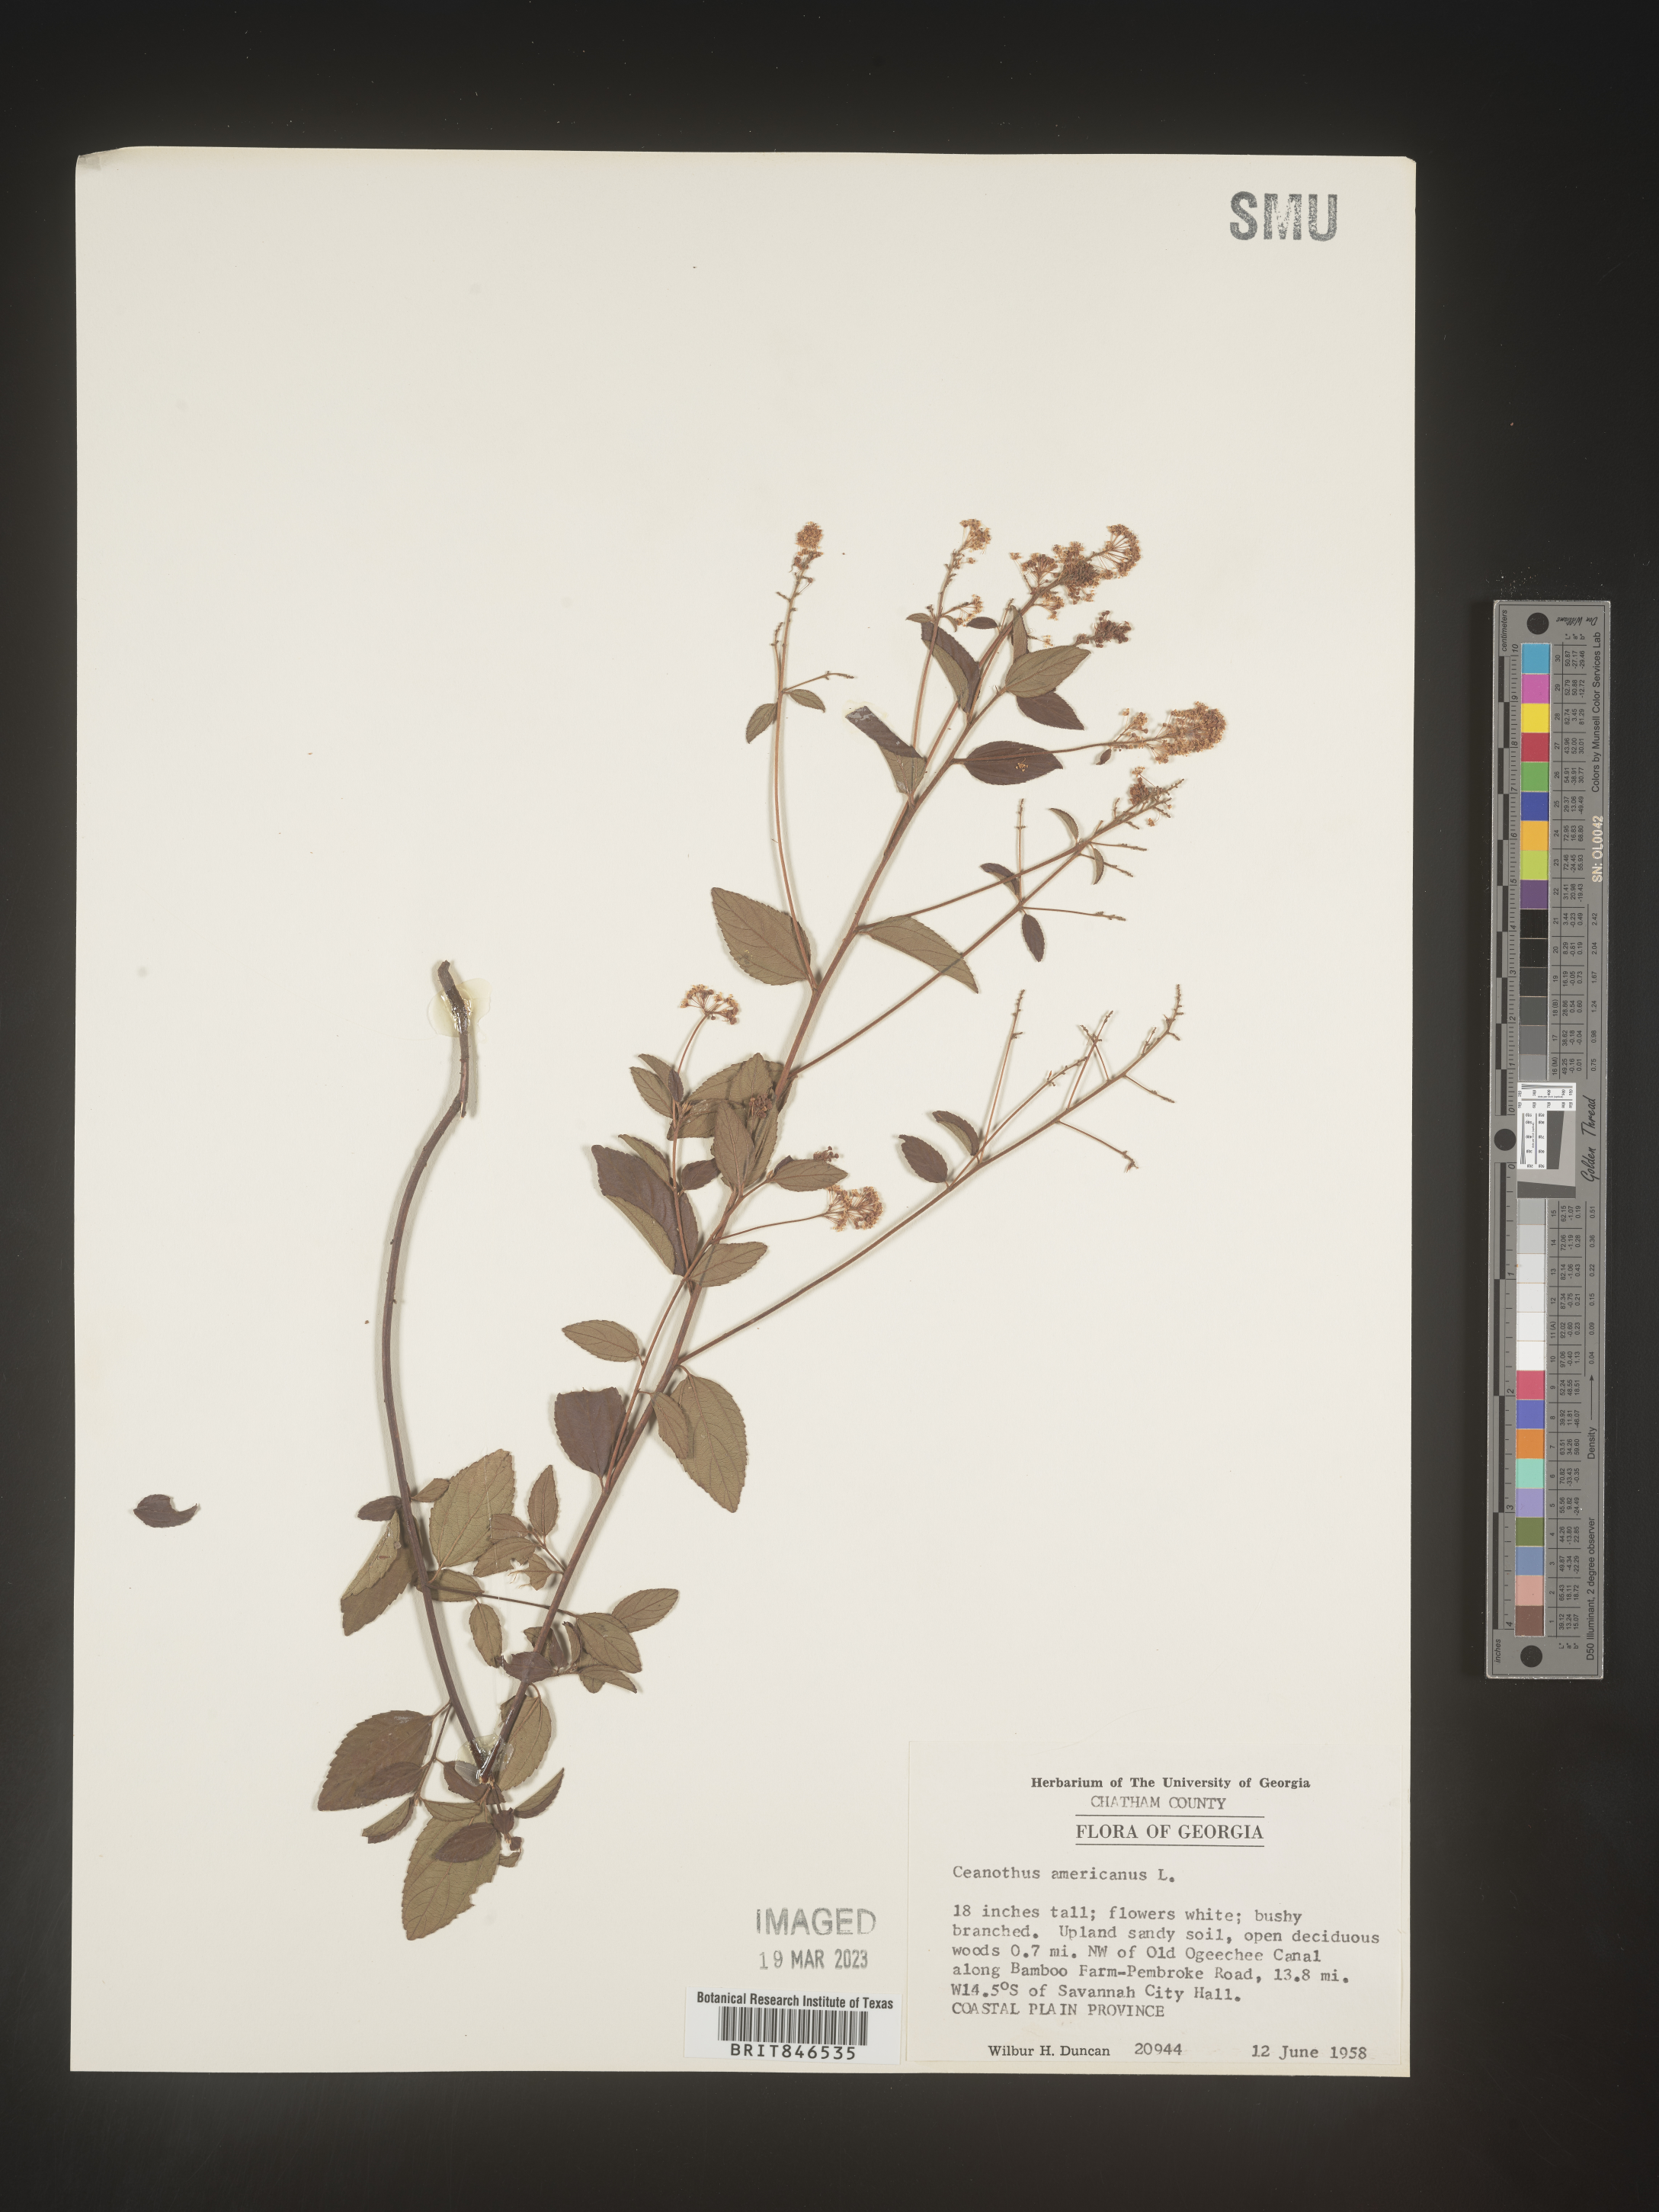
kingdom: Plantae
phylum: Tracheophyta
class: Magnoliopsida
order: Rosales
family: Rhamnaceae
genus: Ceanothus
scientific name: Ceanothus americanus
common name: Redroot
